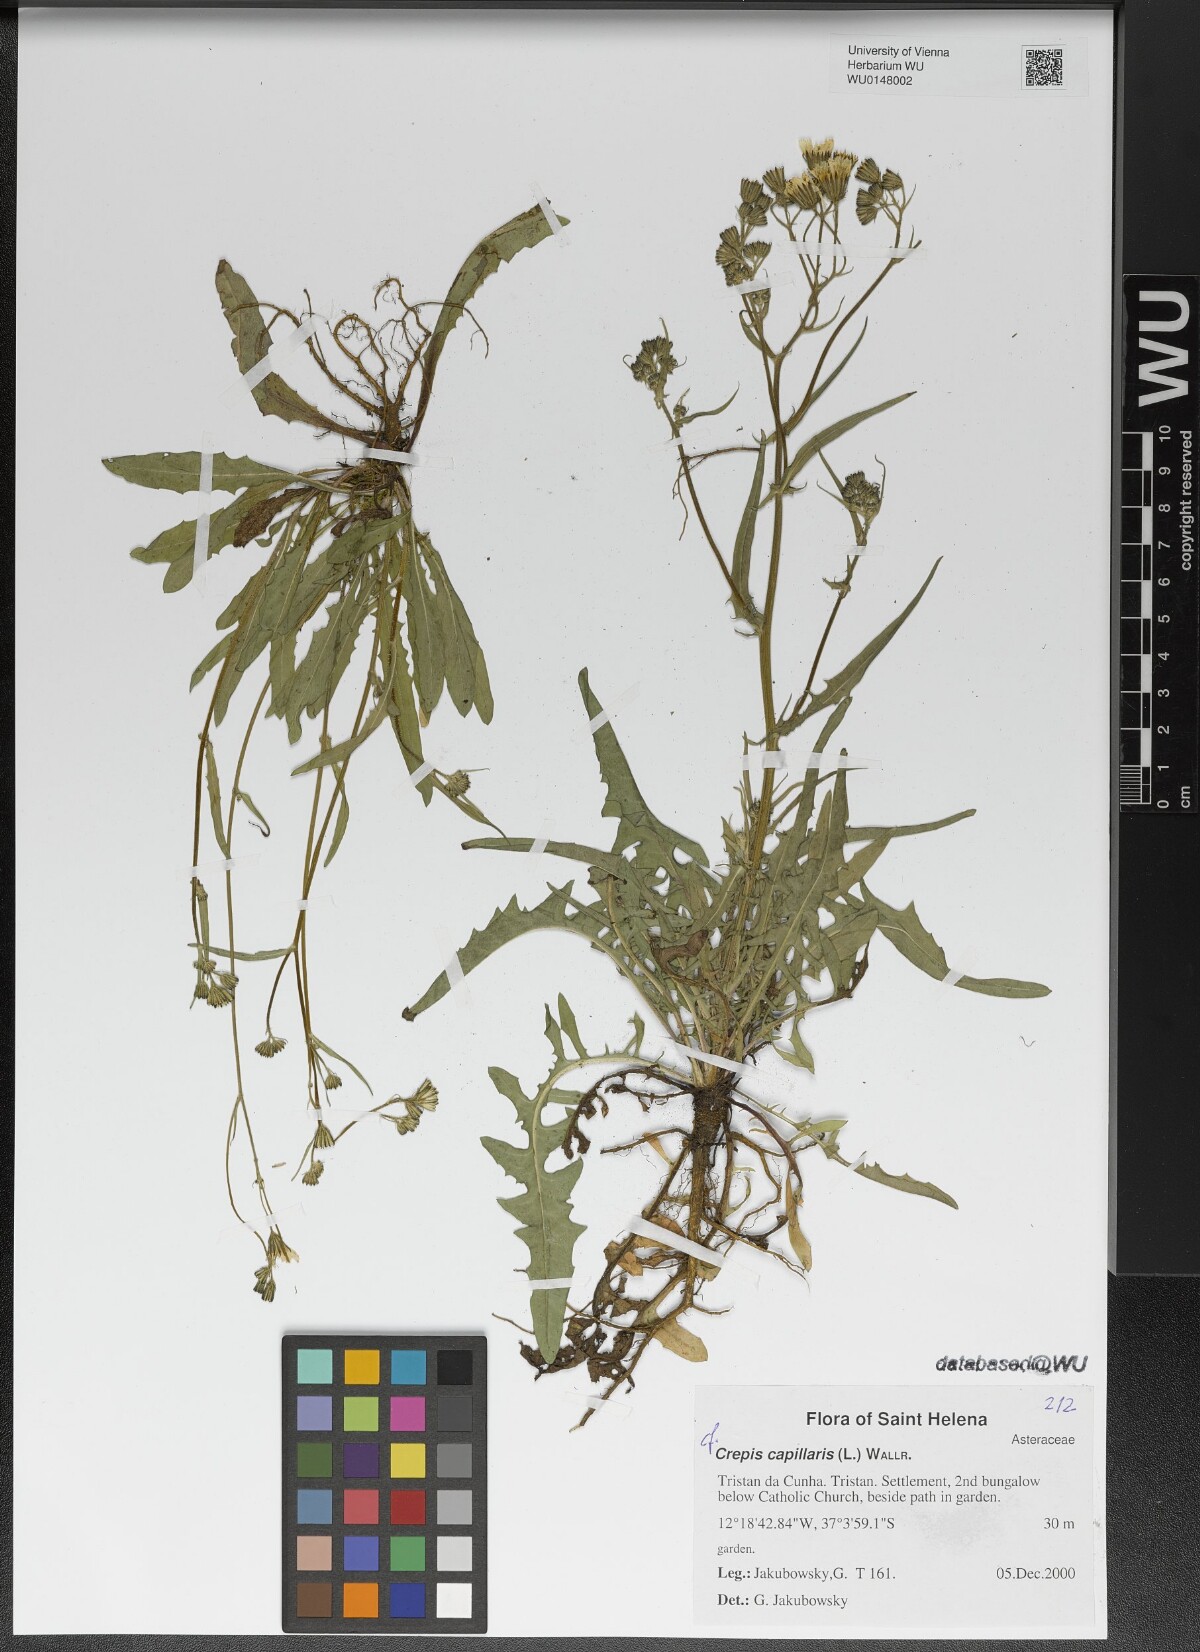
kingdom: Plantae
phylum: Tracheophyta
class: Magnoliopsida
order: Asterales
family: Asteraceae
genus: Crepis
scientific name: Crepis capillaris
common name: Smooth hawksbeard
